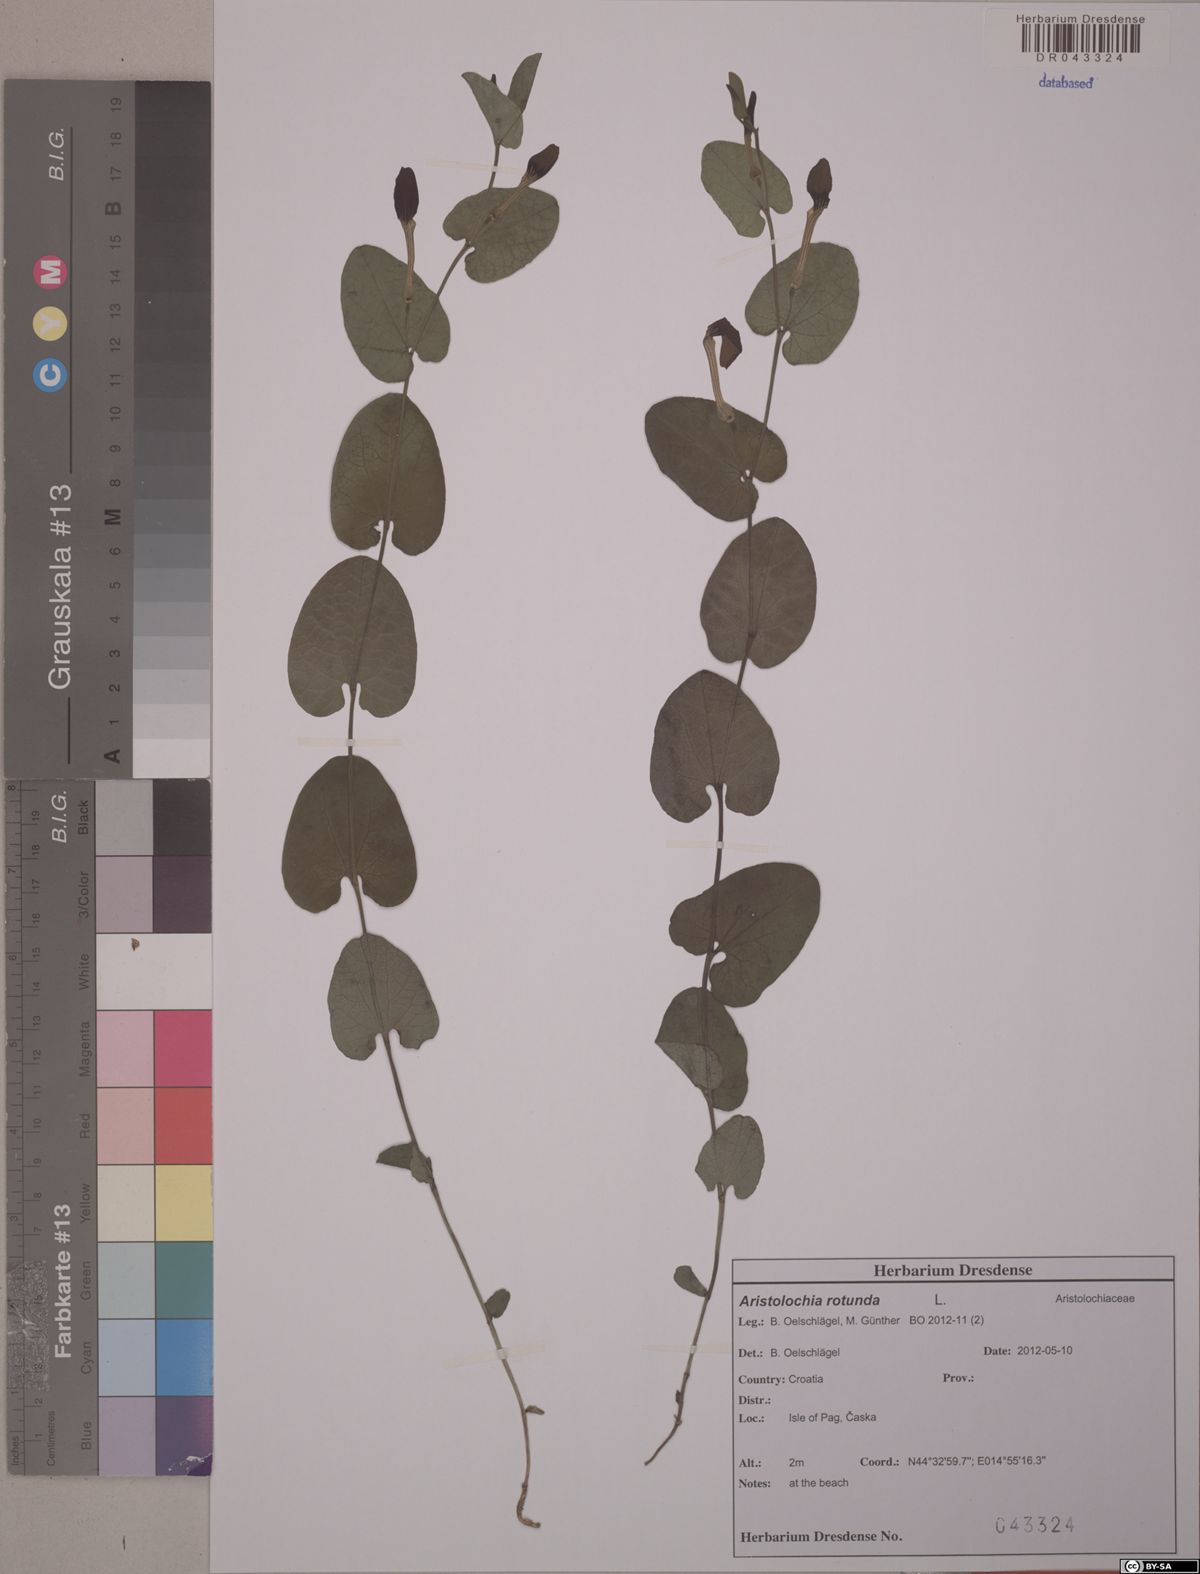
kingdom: Plantae
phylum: Tracheophyta
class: Magnoliopsida
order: Piperales
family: Aristolochiaceae
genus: Aristolochia
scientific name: Aristolochia rotunda
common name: Smearwort
